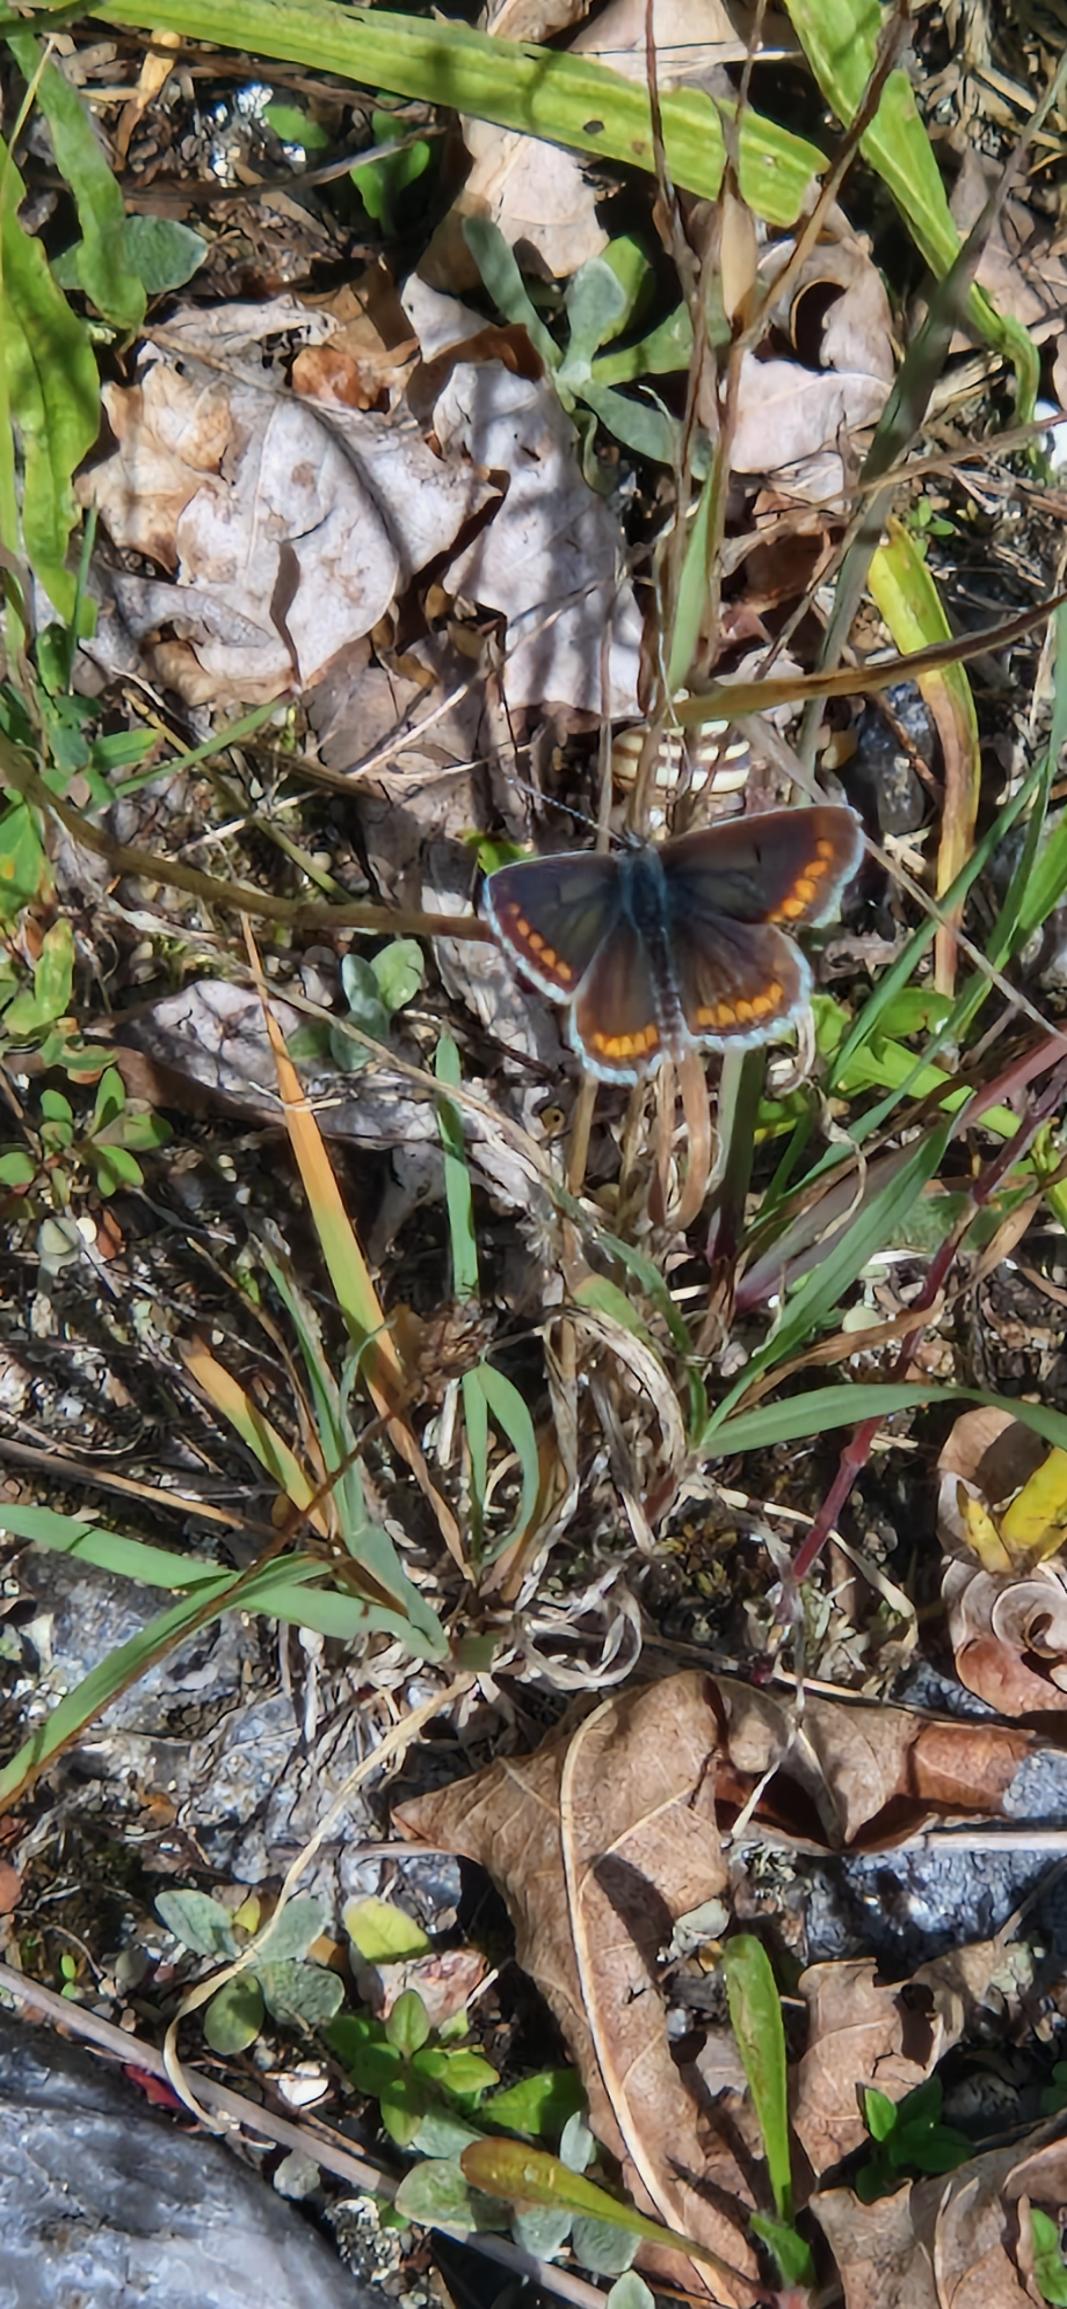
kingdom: Animalia
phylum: Arthropoda
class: Insecta
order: Lepidoptera
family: Lycaenidae
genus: Aricia
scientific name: Aricia agestis
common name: Rødplettet blåfugl
